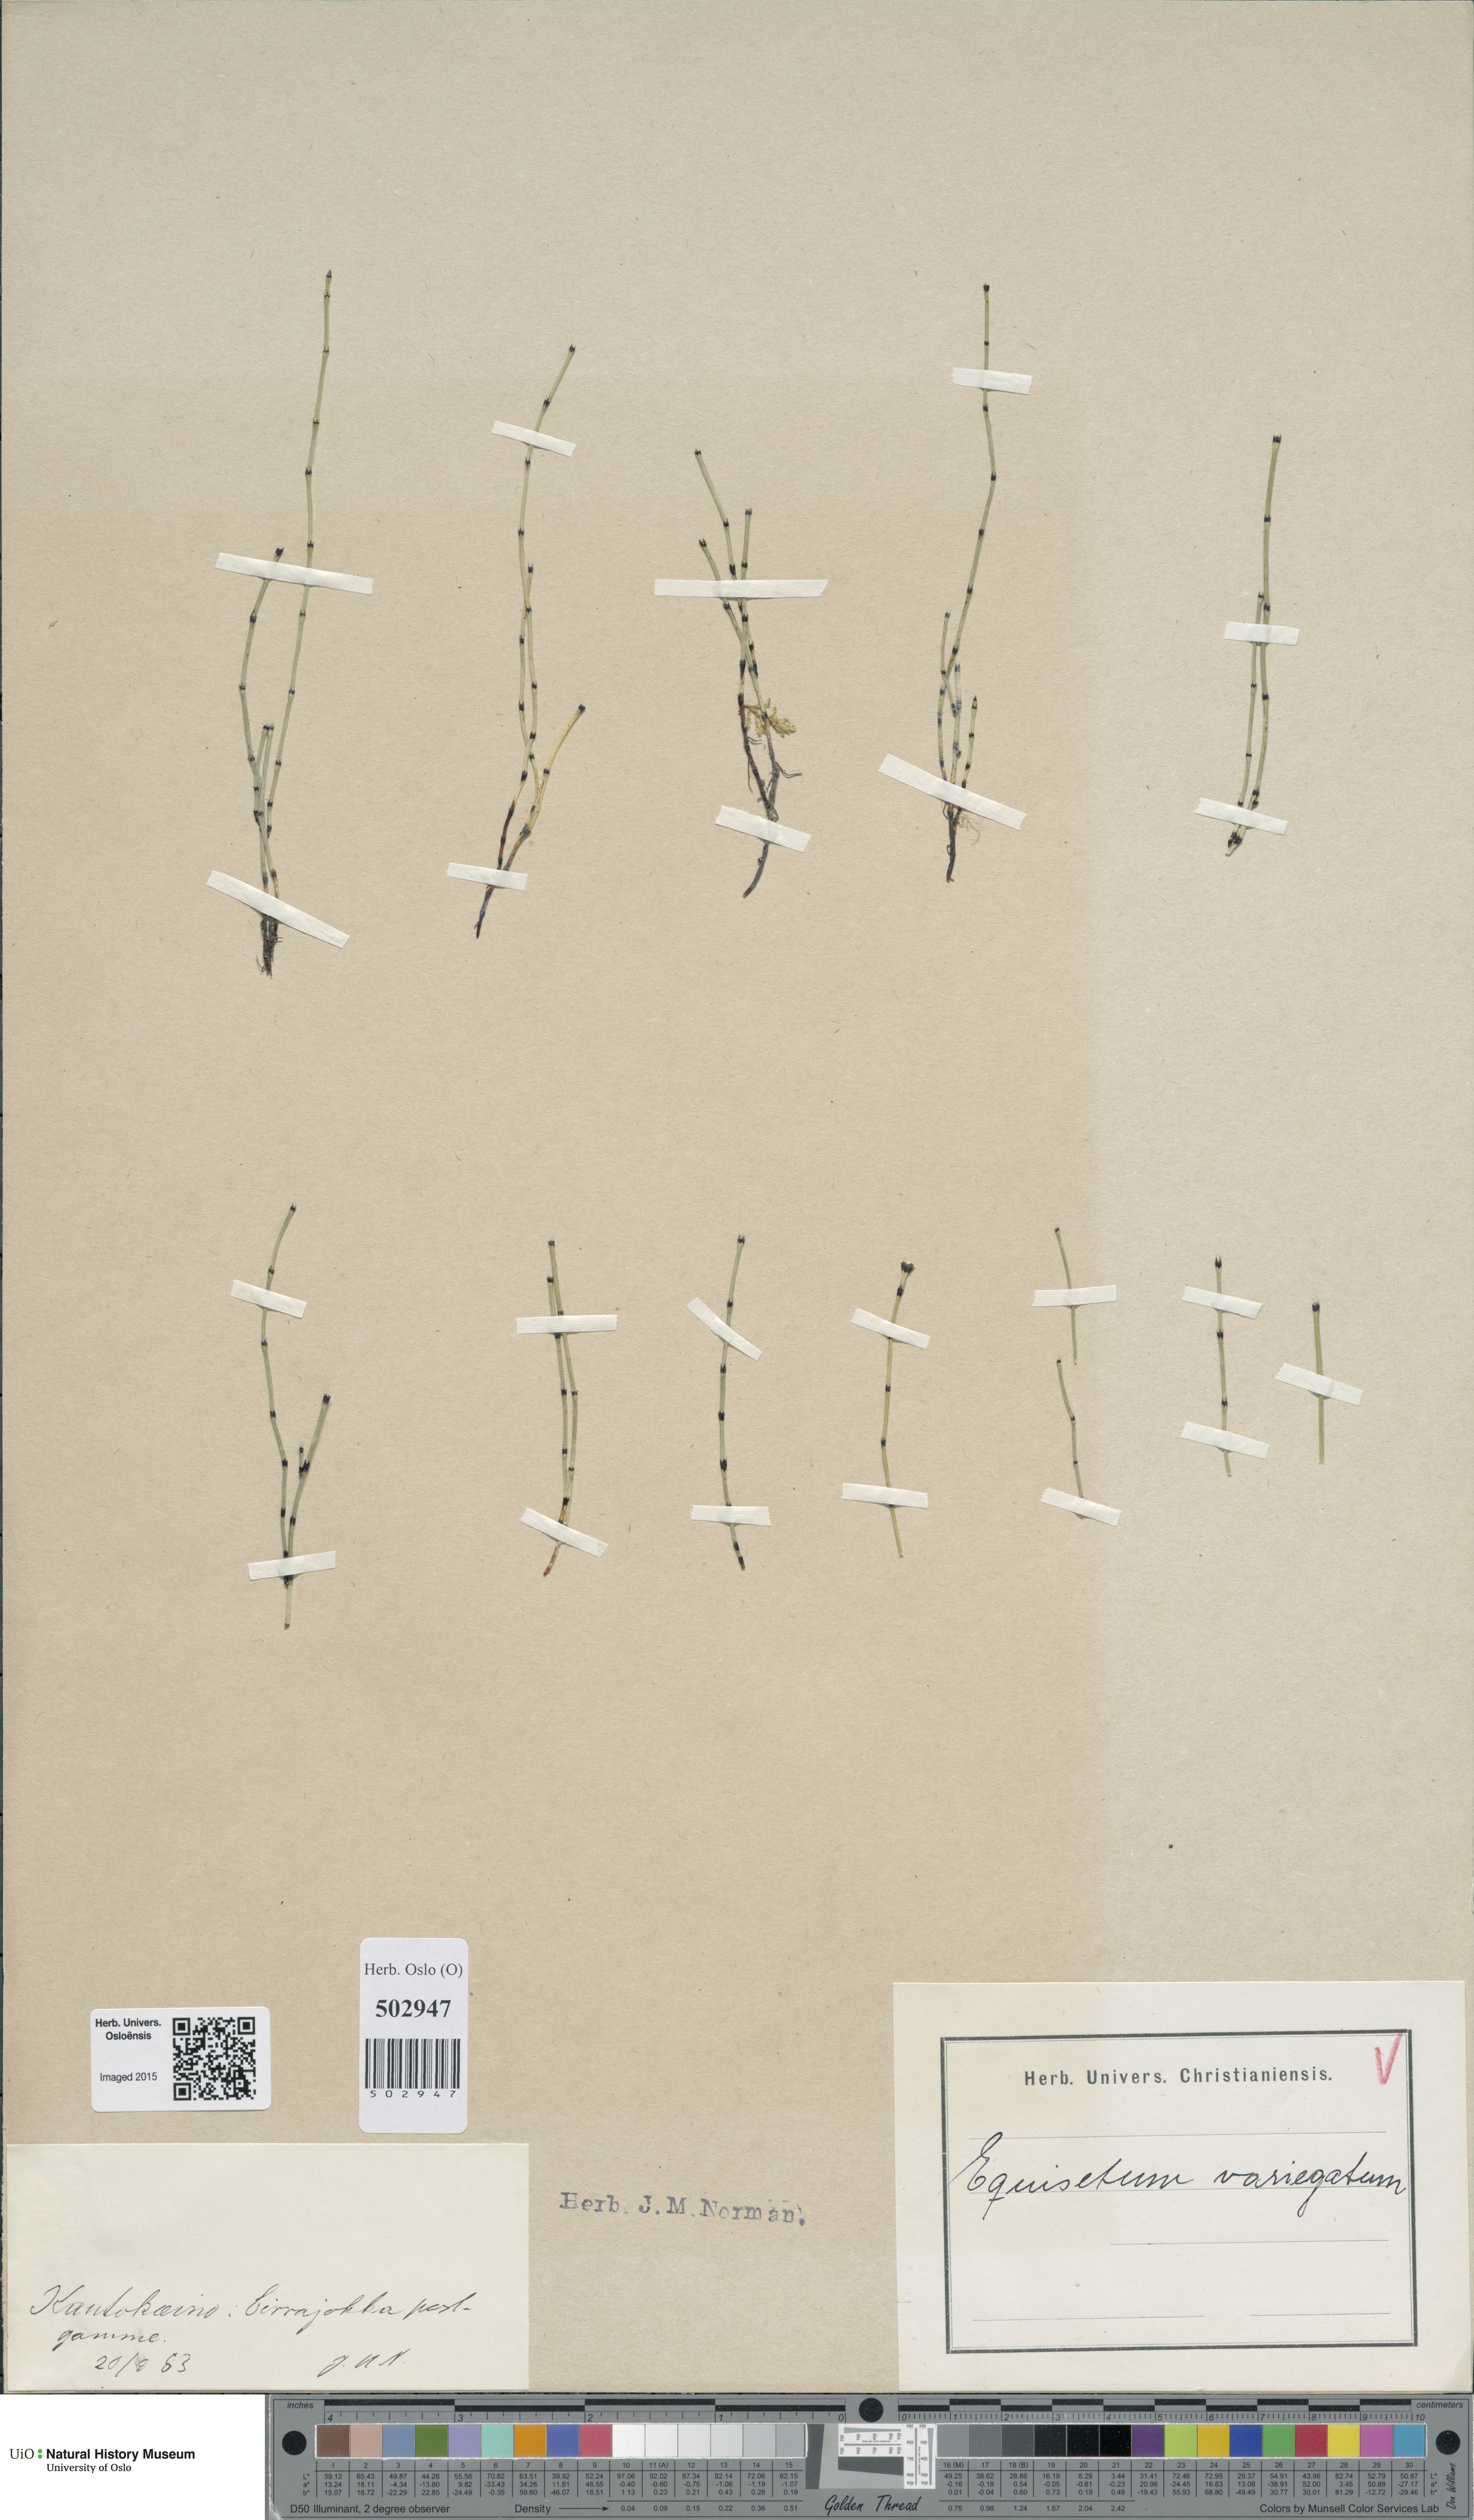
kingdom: Plantae
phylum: Tracheophyta
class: Polypodiopsida
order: Equisetales
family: Equisetaceae
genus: Equisetum
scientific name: Equisetum variegatum
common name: Variegated horsetail
